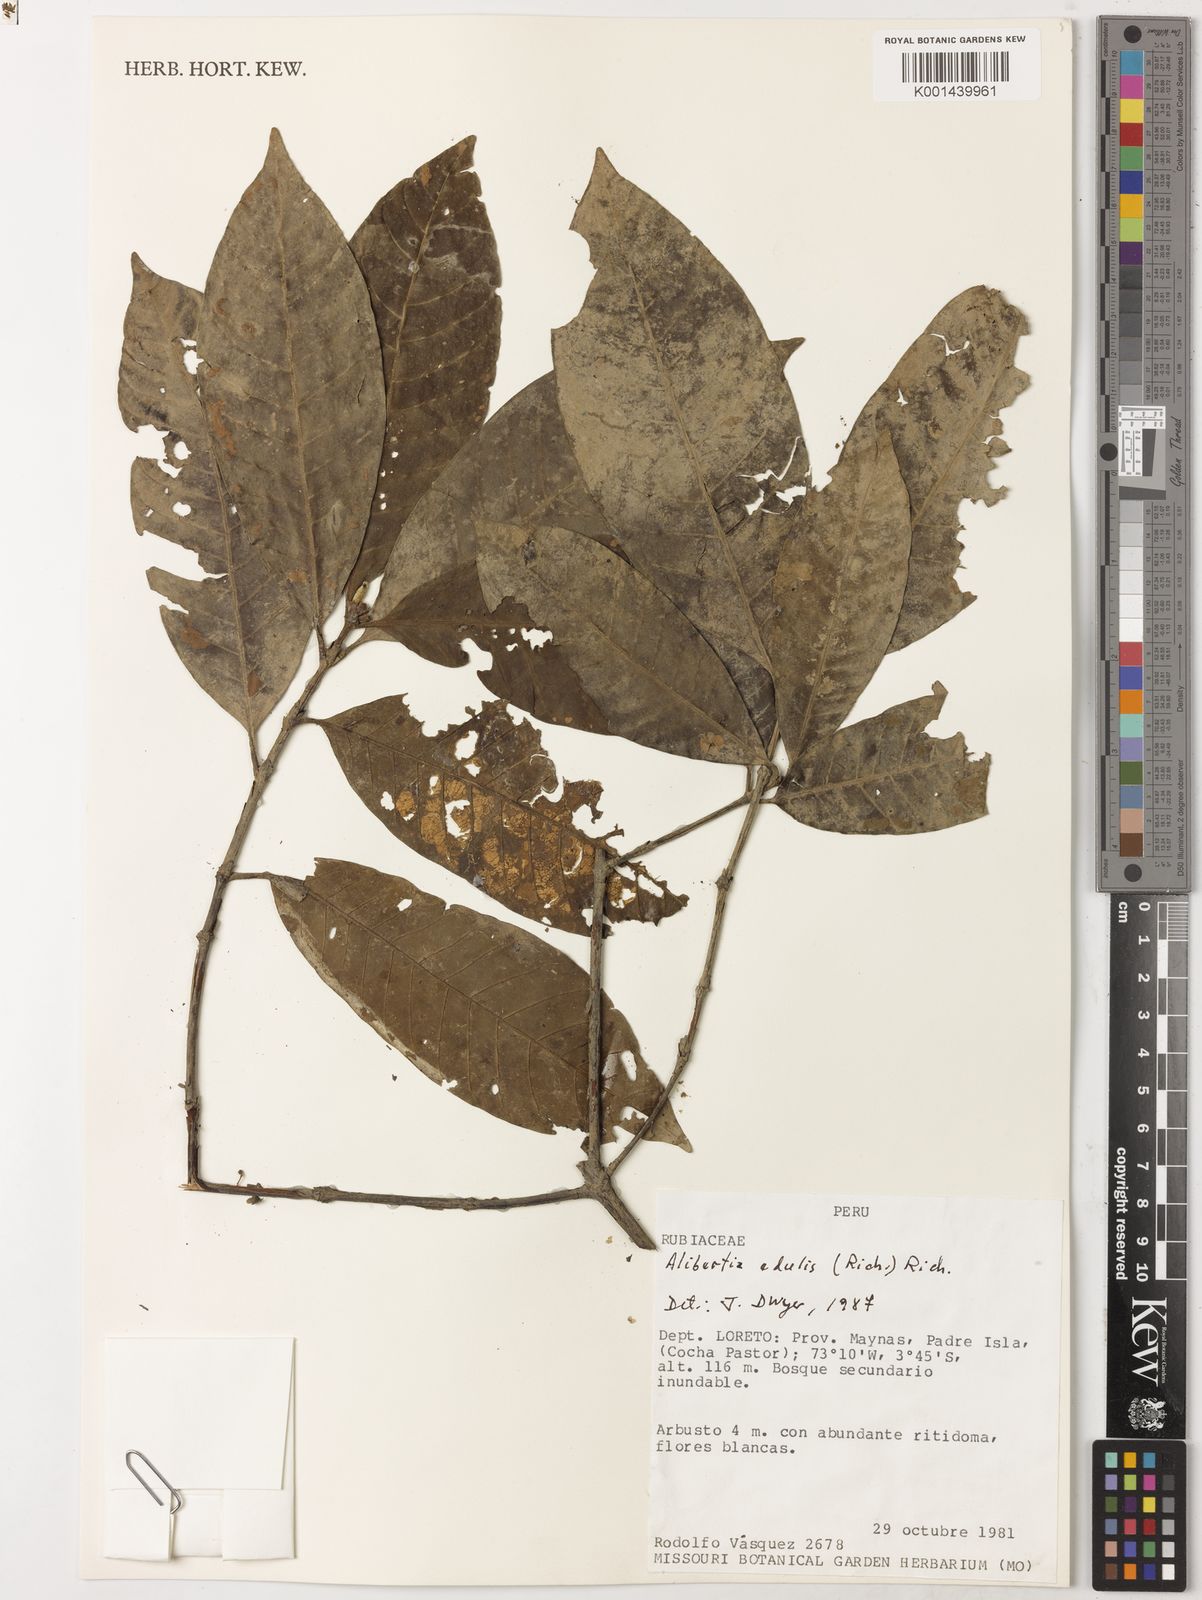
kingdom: Plantae
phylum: Tracheophyta
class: Magnoliopsida
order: Gentianales
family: Rubiaceae
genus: Alibertia
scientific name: Alibertia edulis
